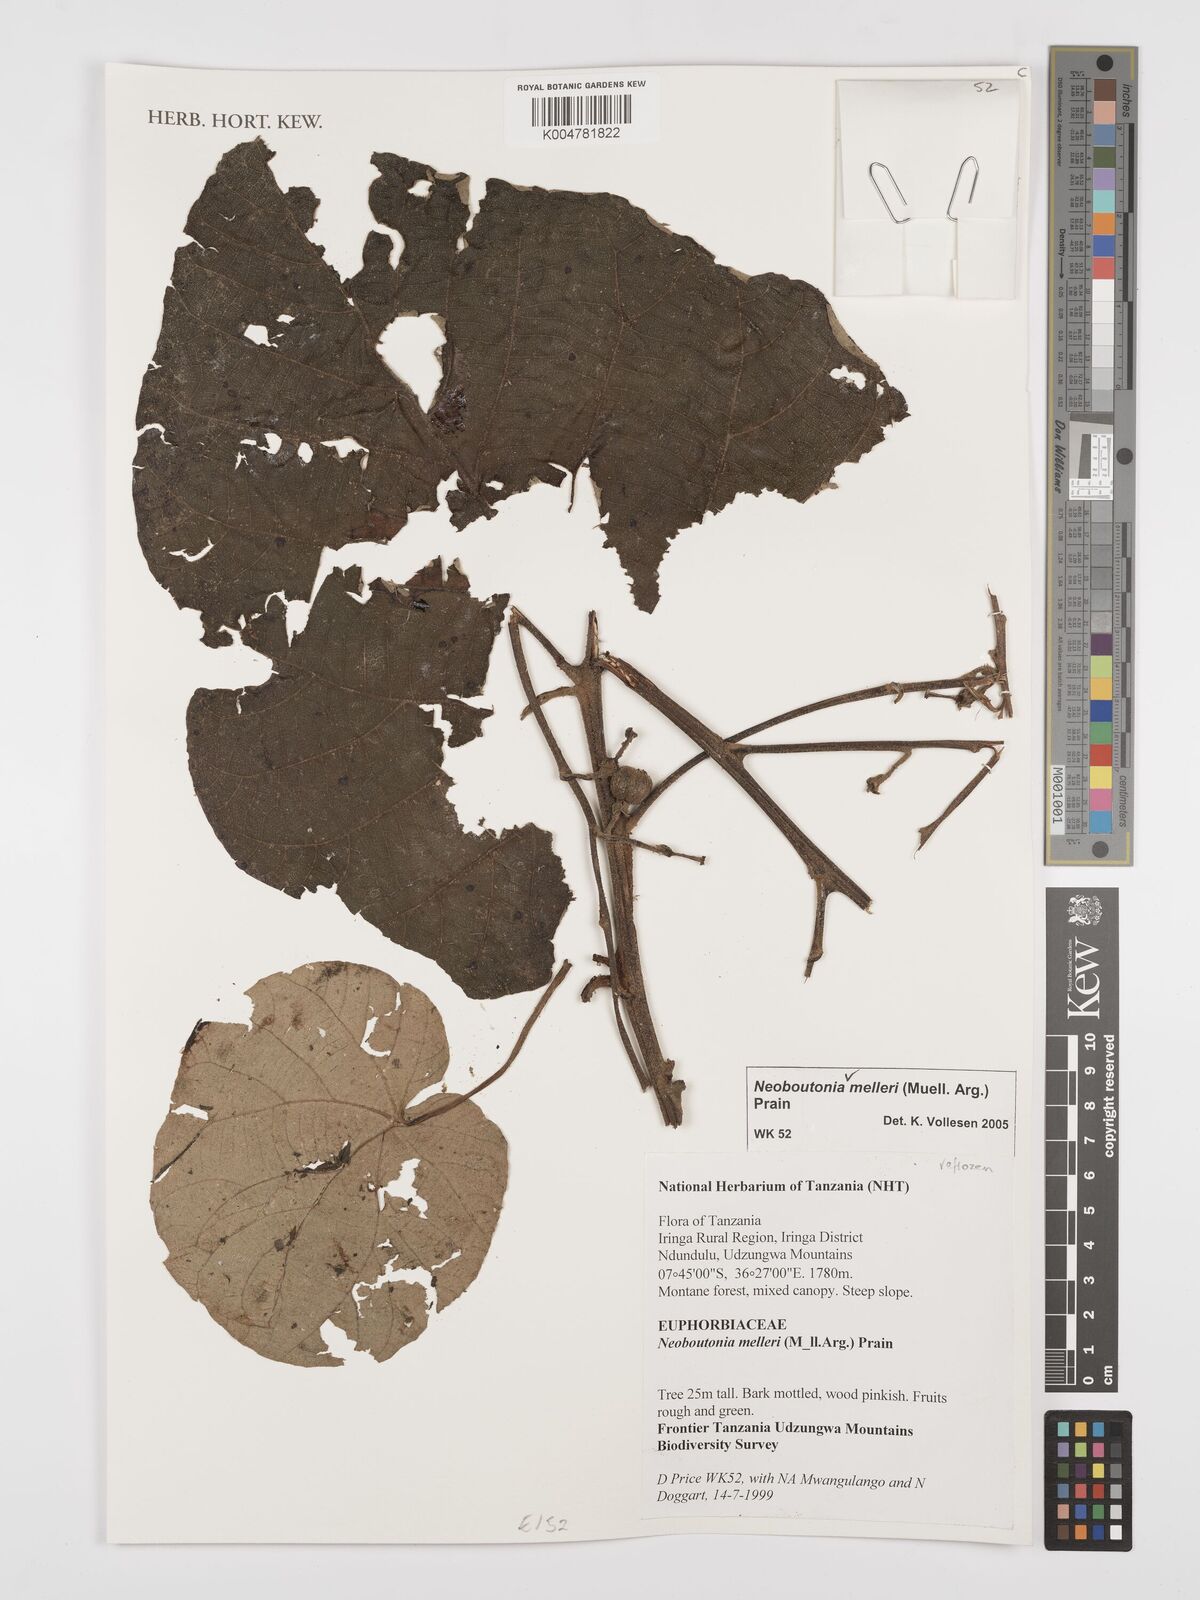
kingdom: Plantae
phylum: Tracheophyta
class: Magnoliopsida
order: Malpighiales
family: Euphorbiaceae
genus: Neoboutonia
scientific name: Neoboutonia melleri
